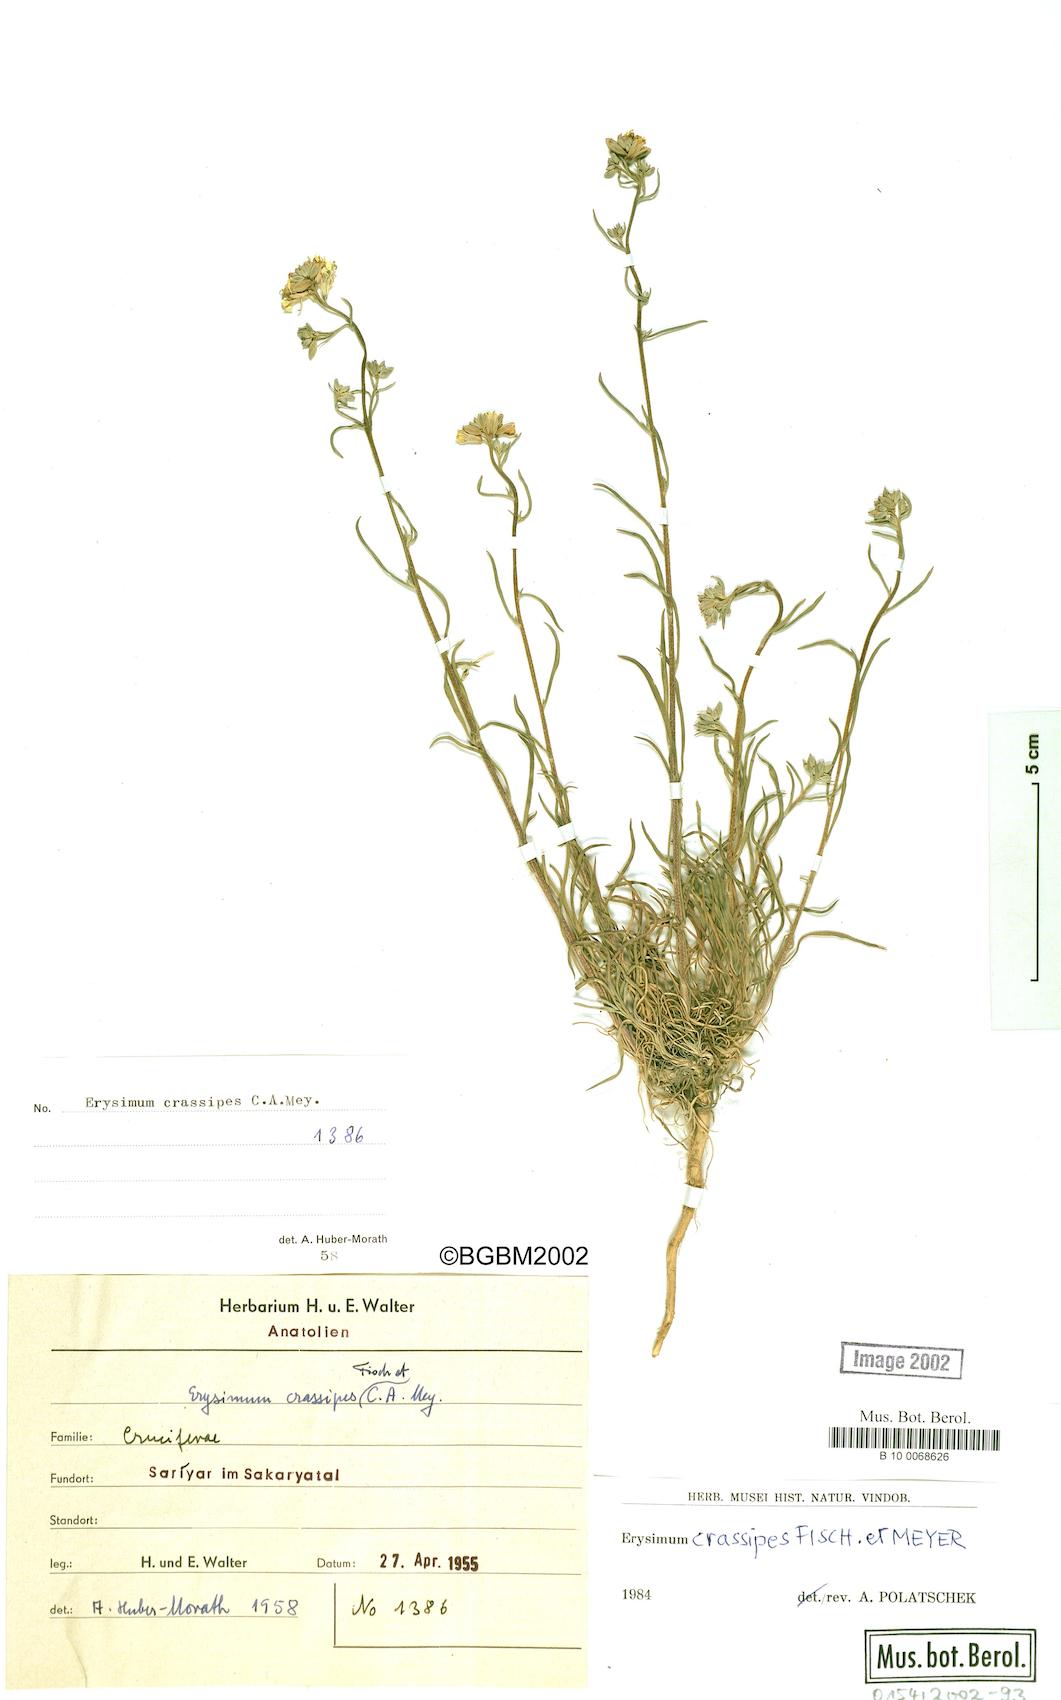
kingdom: Plantae
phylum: Tracheophyta
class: Magnoliopsida
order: Brassicales
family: Brassicaceae
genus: Erysimum
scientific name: Erysimum crassipes
